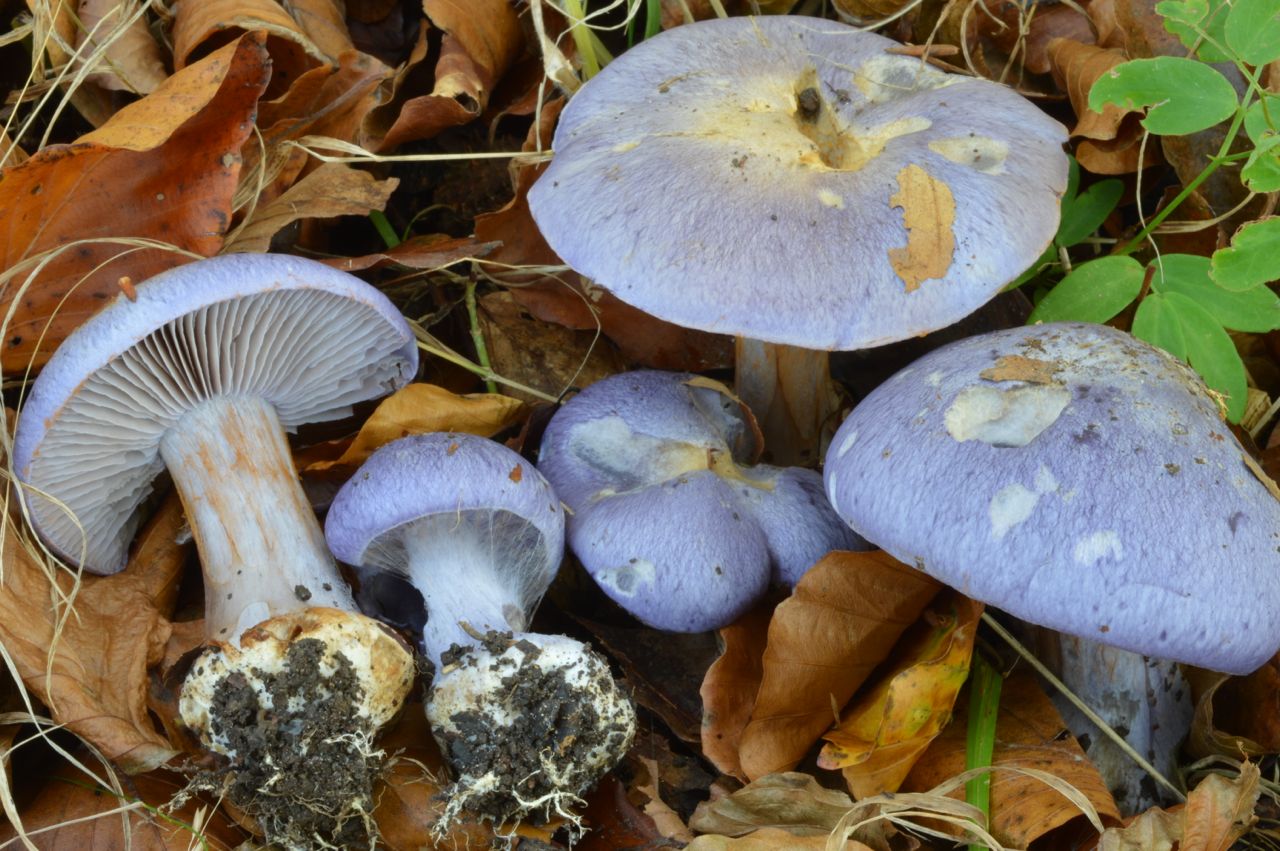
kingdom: Fungi
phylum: Basidiomycota
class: Agaricomycetes
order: Agaricales
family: Cortinariaceae
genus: Phlegmacium
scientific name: Phlegmacium eucaeruleum
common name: indigo-slørhat
